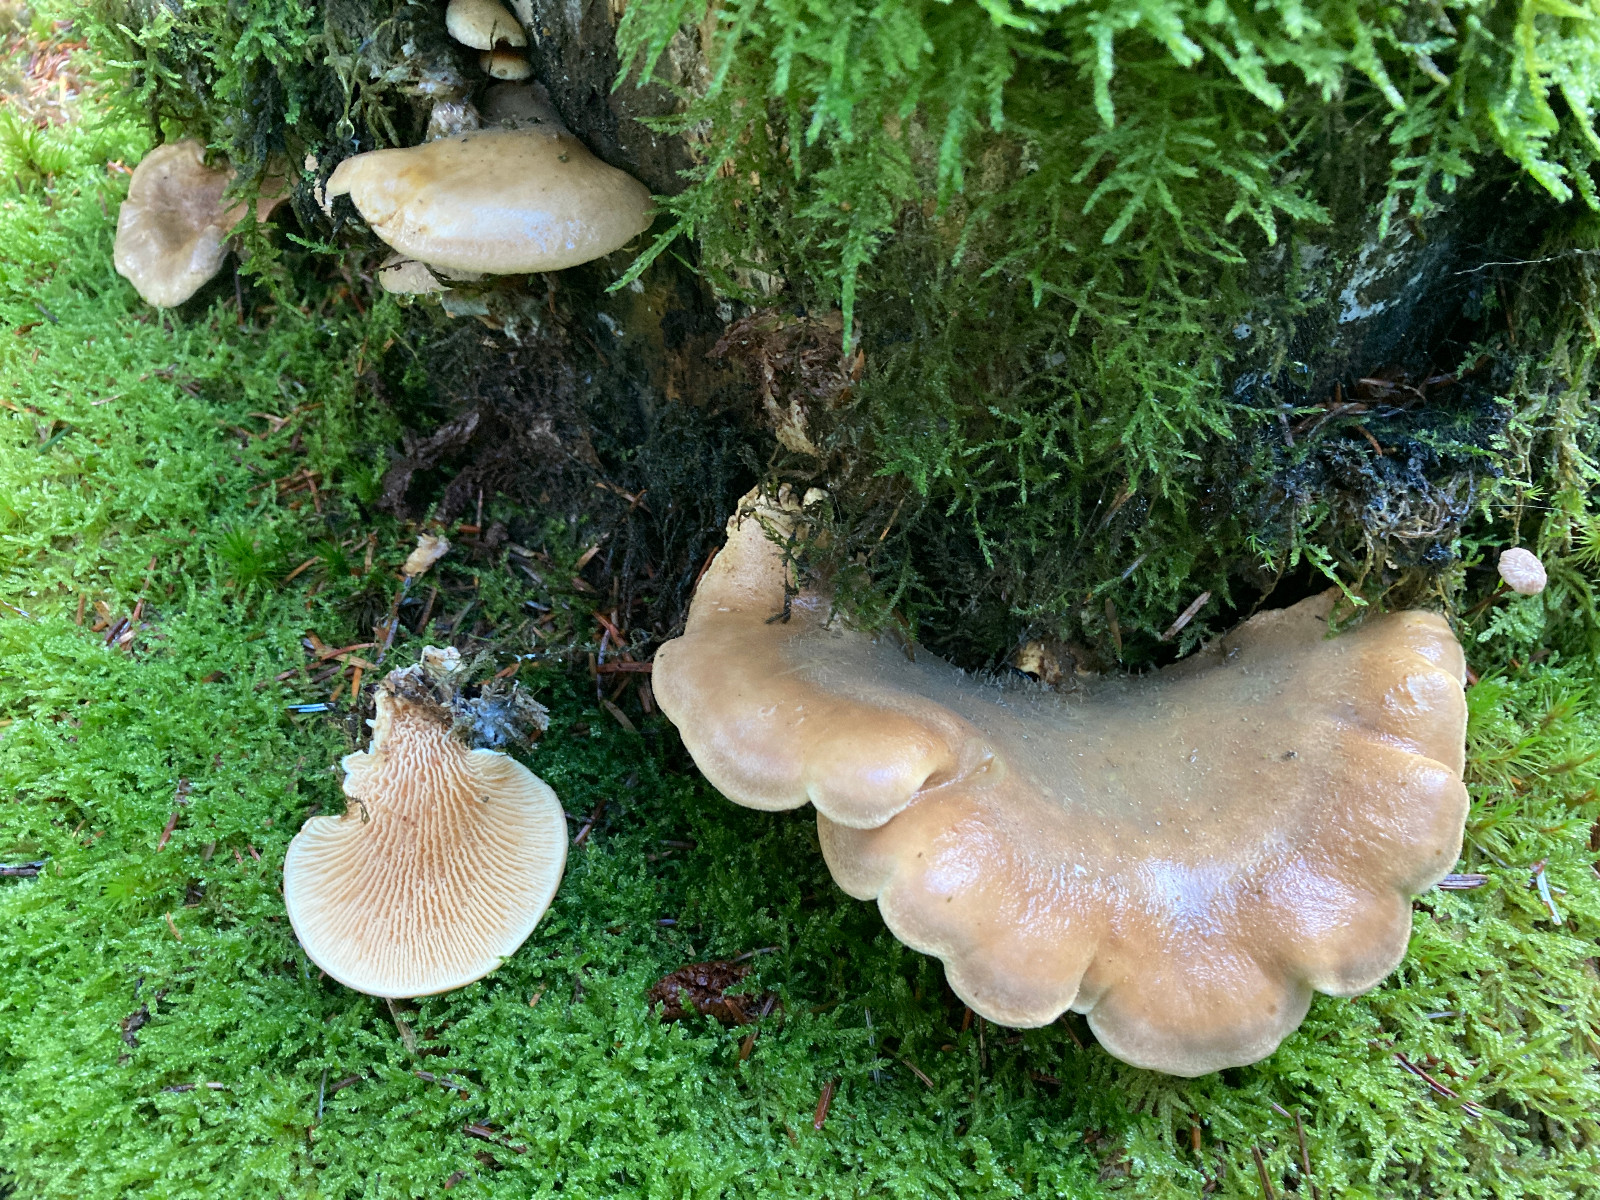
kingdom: Fungi
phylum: Basidiomycota
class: Agaricomycetes
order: Boletales
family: Tapinellaceae
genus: Tapinella
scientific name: Tapinella panuoides
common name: tømmer-viftesvamp
